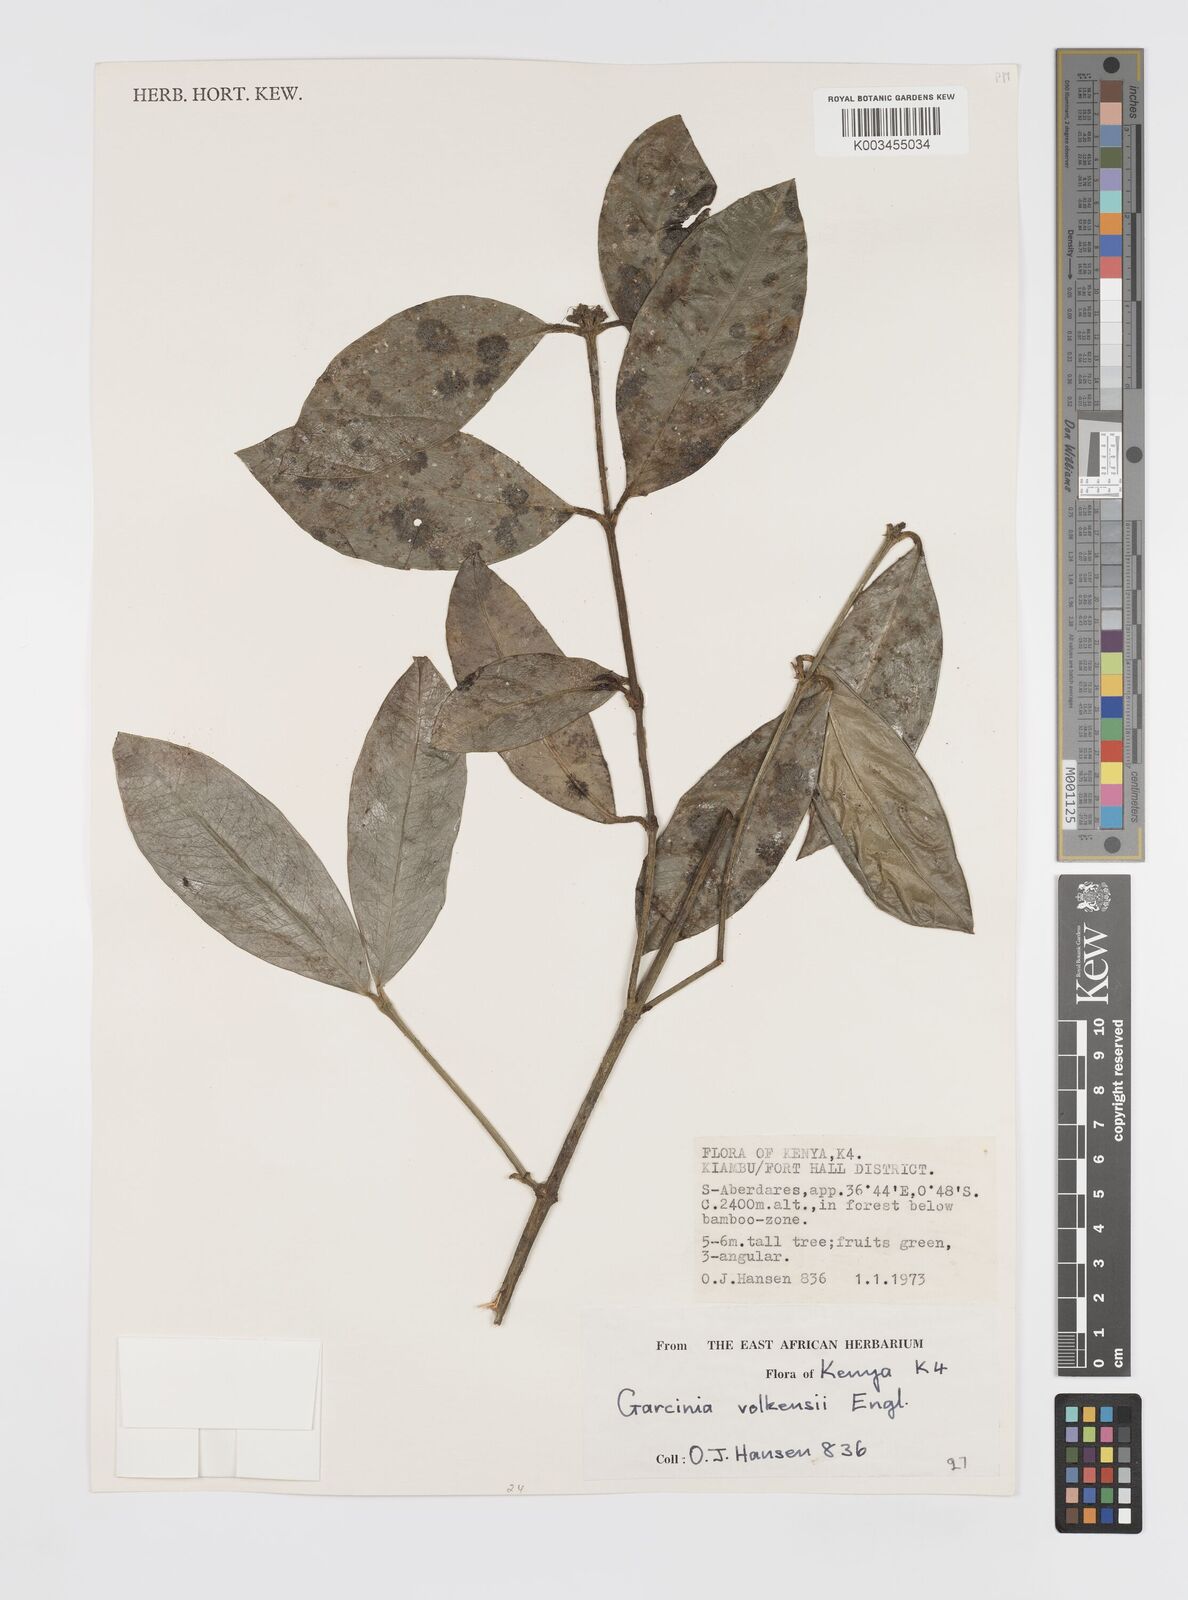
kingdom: Plantae
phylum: Tracheophyta
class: Magnoliopsida
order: Malpighiales
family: Clusiaceae
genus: Garcinia
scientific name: Garcinia volkensii
